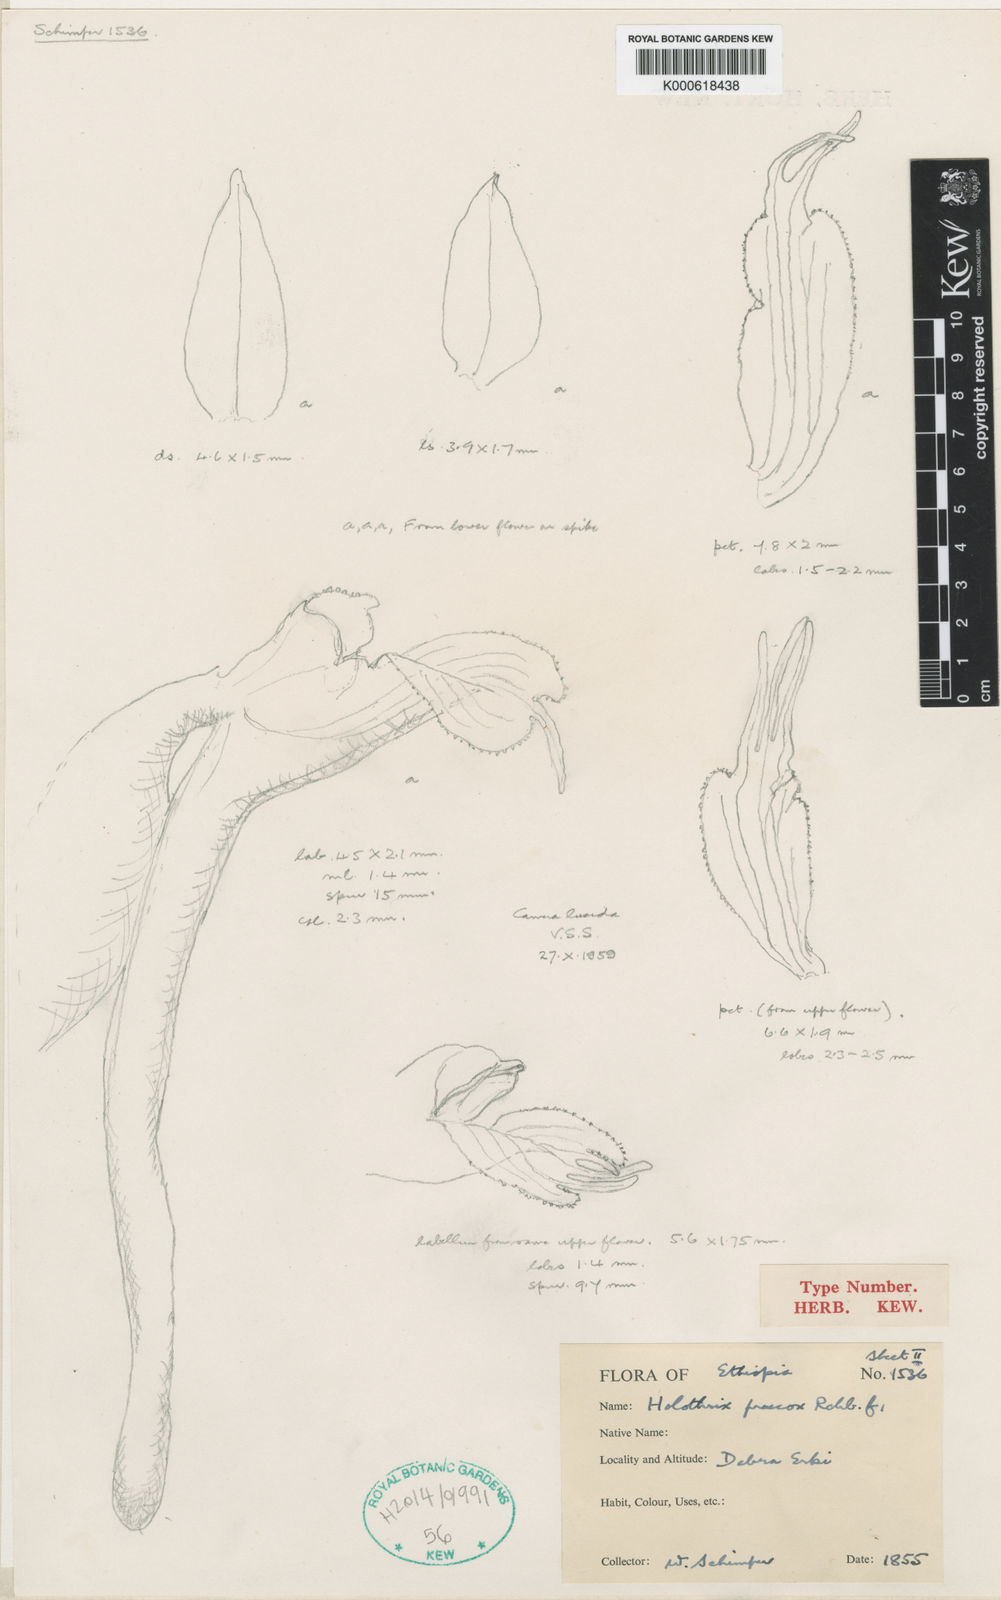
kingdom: Plantae
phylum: Tracheophyta
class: Liliopsida
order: Asparagales
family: Orchidaceae
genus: Holothrix
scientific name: Holothrix praecox
